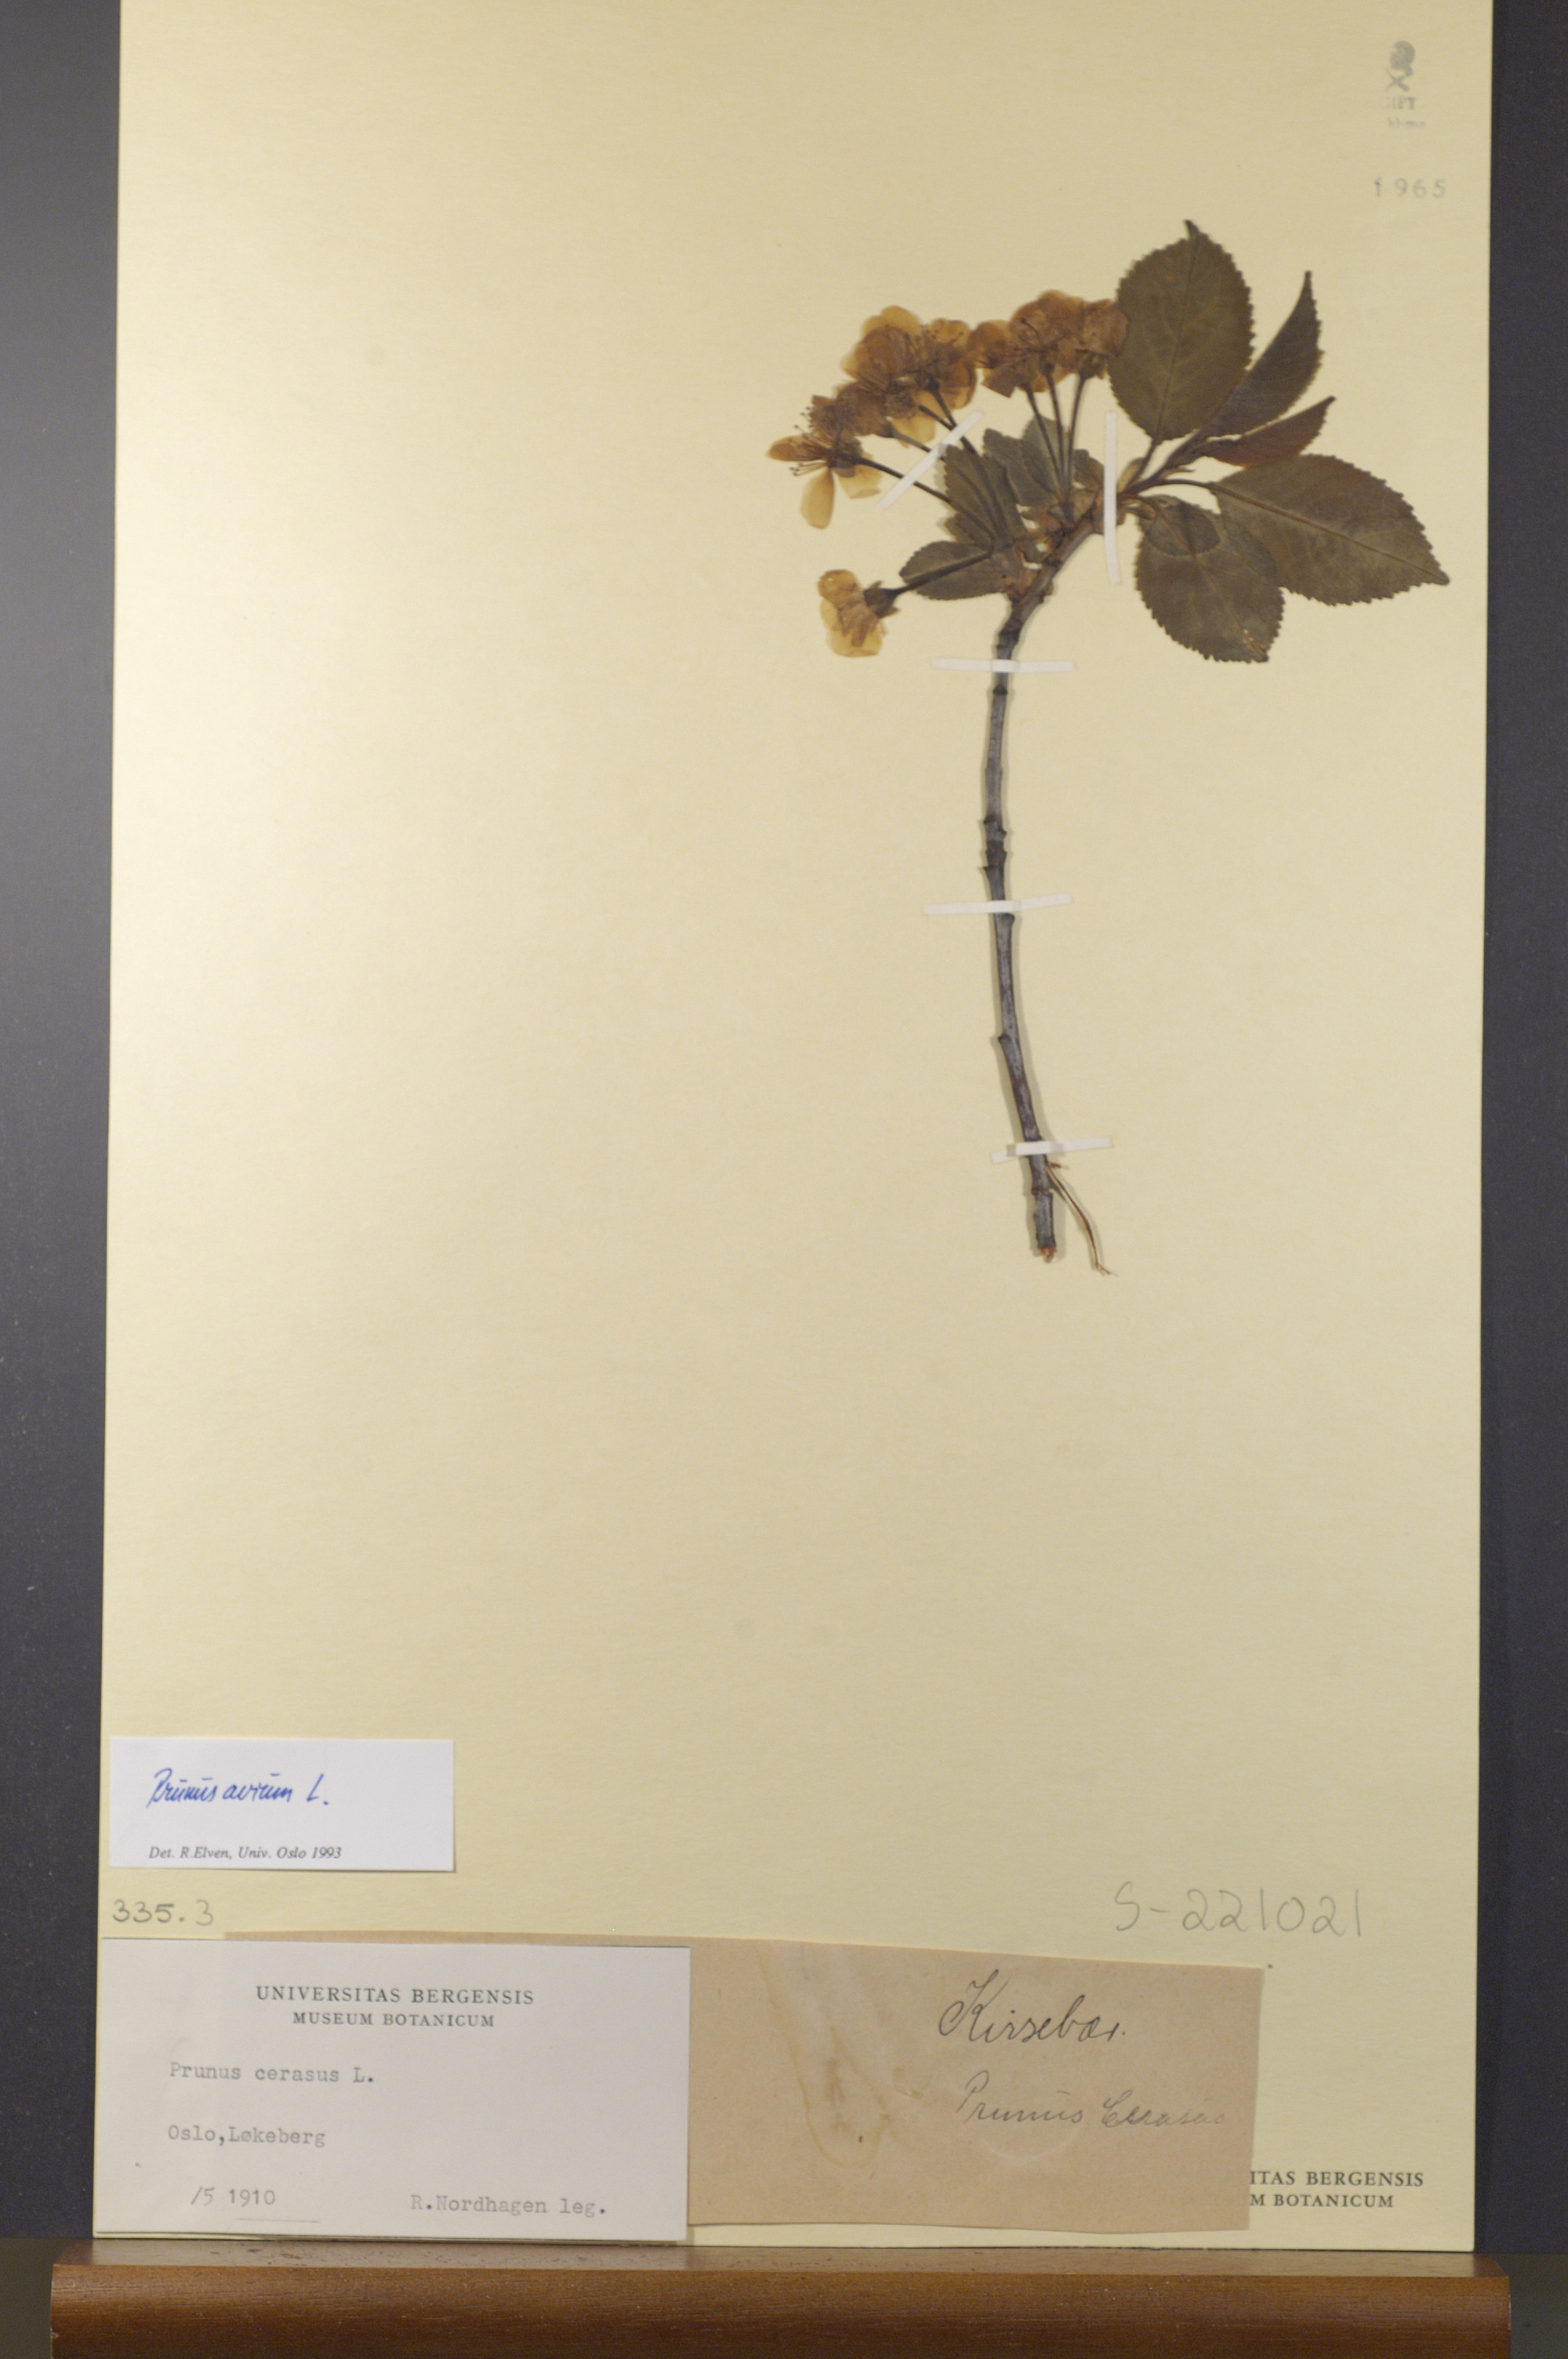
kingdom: Plantae
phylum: Tracheophyta
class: Magnoliopsida
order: Rosales
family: Rosaceae
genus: Prunus
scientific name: Prunus avium
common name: Sweet cherry
